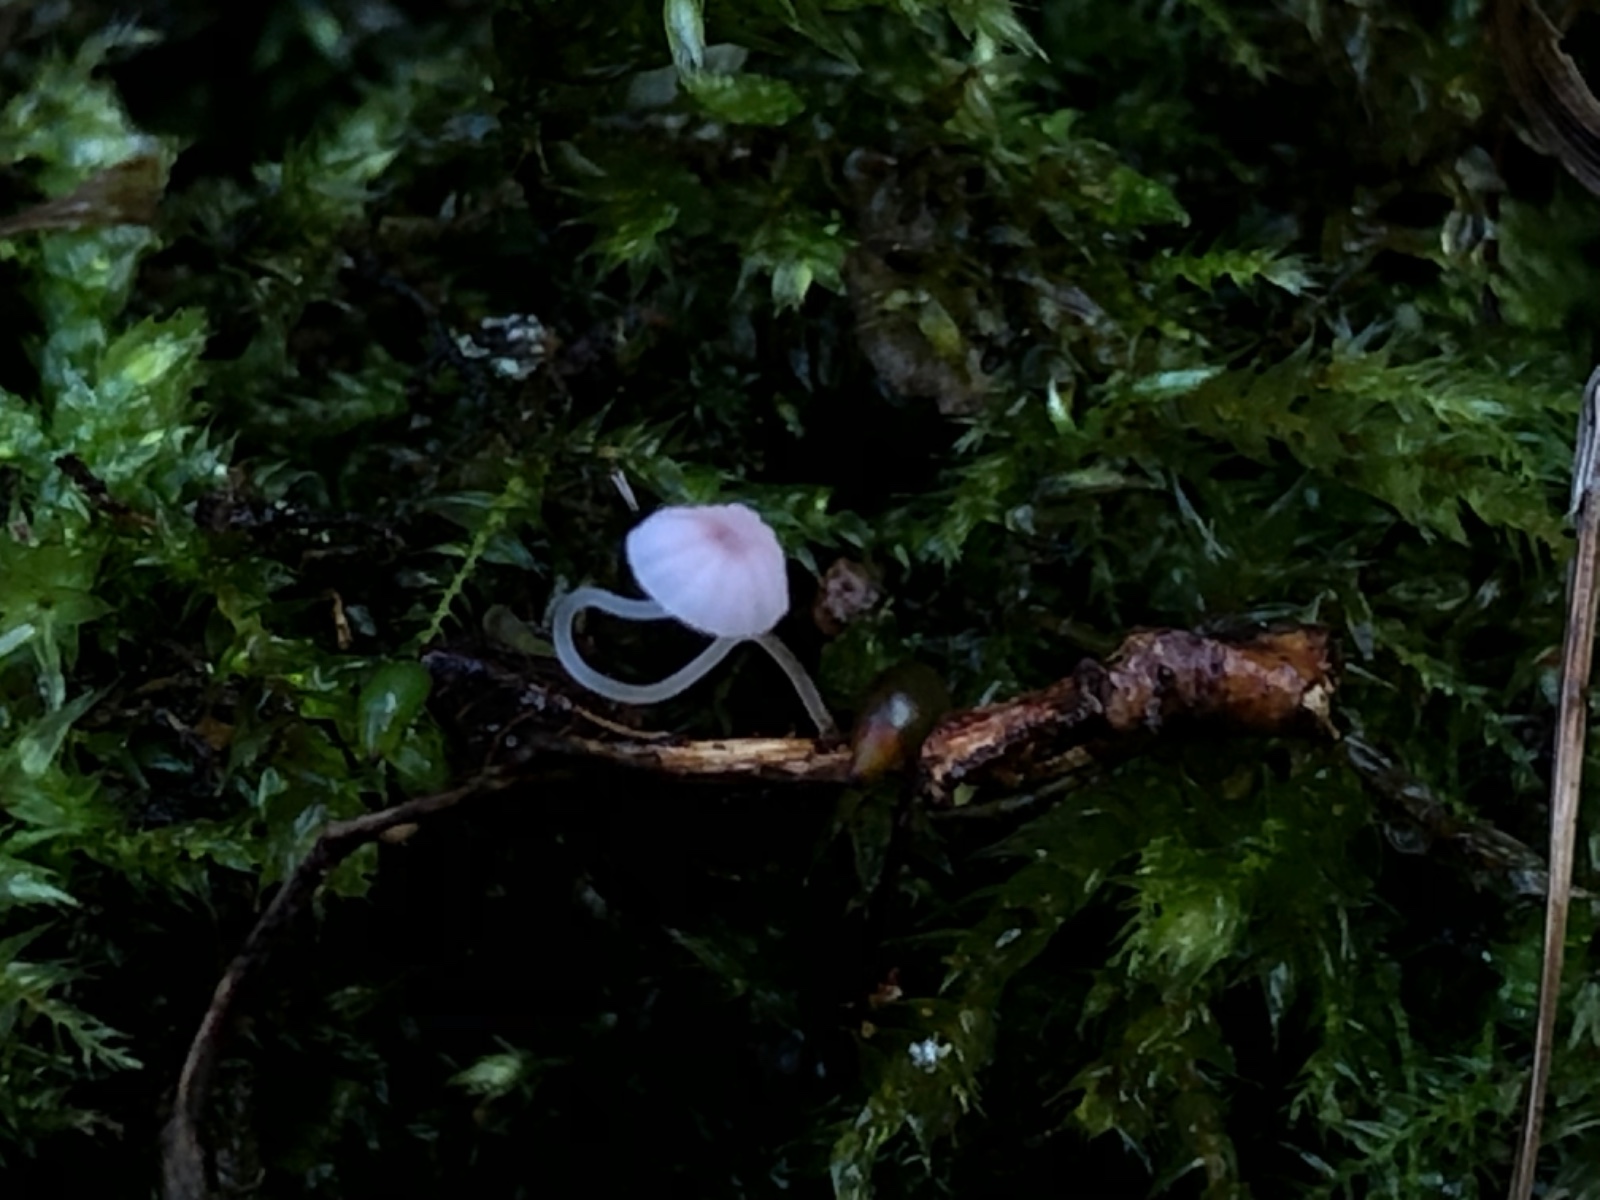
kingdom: Fungi
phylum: Basidiomycota
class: Agaricomycetes
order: Agaricales
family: Mycenaceae
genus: Mycena
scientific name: Mycena smithiana
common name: blegrød huesvamp
